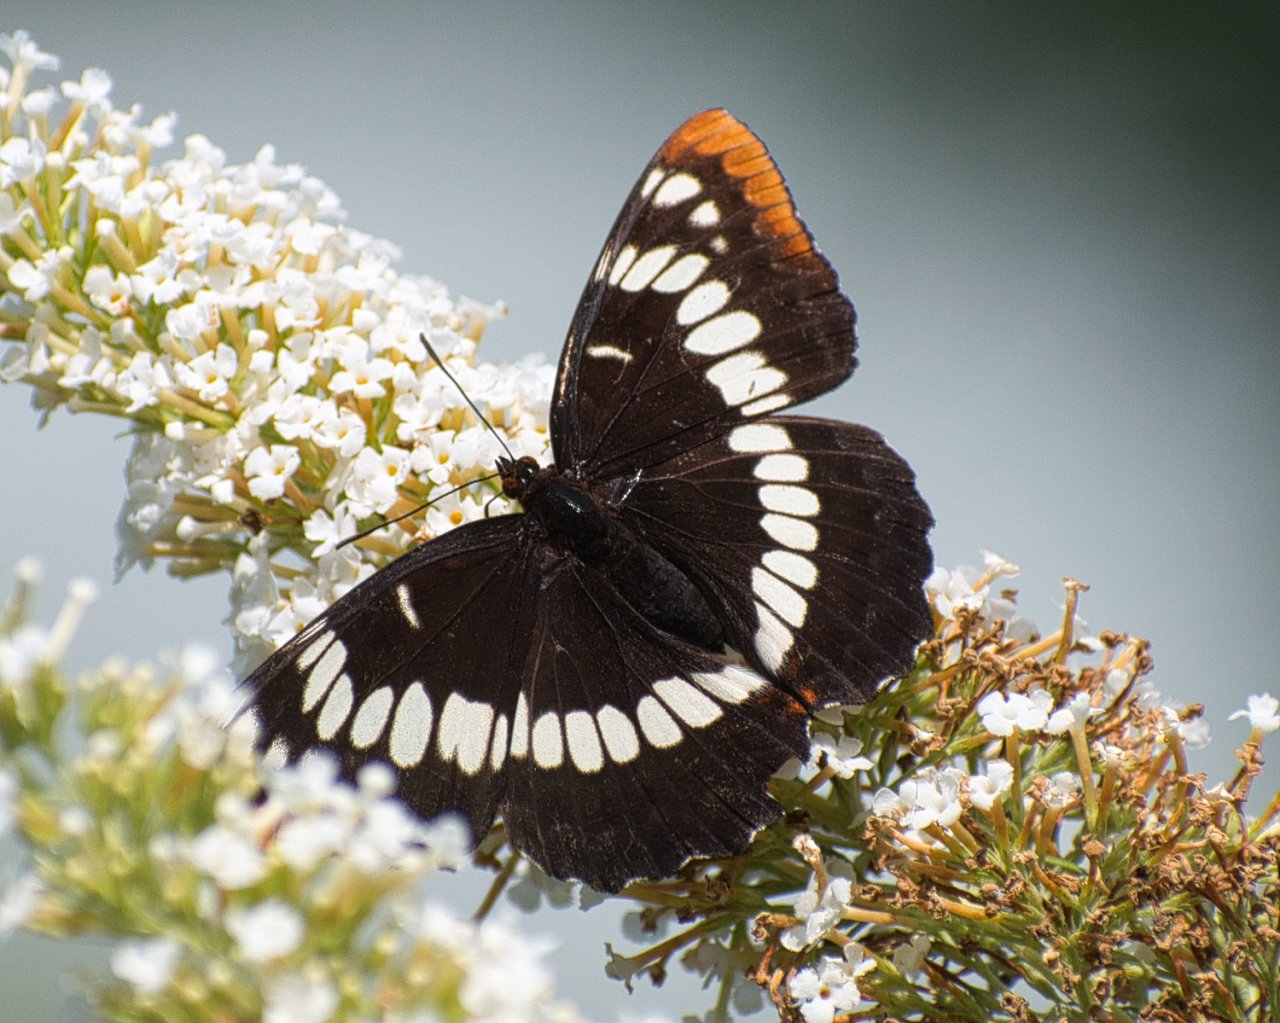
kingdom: Animalia
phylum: Arthropoda
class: Insecta
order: Lepidoptera
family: Nymphalidae
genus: Limenitis
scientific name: Limenitis lorquini
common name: Lorquin's Admiral
